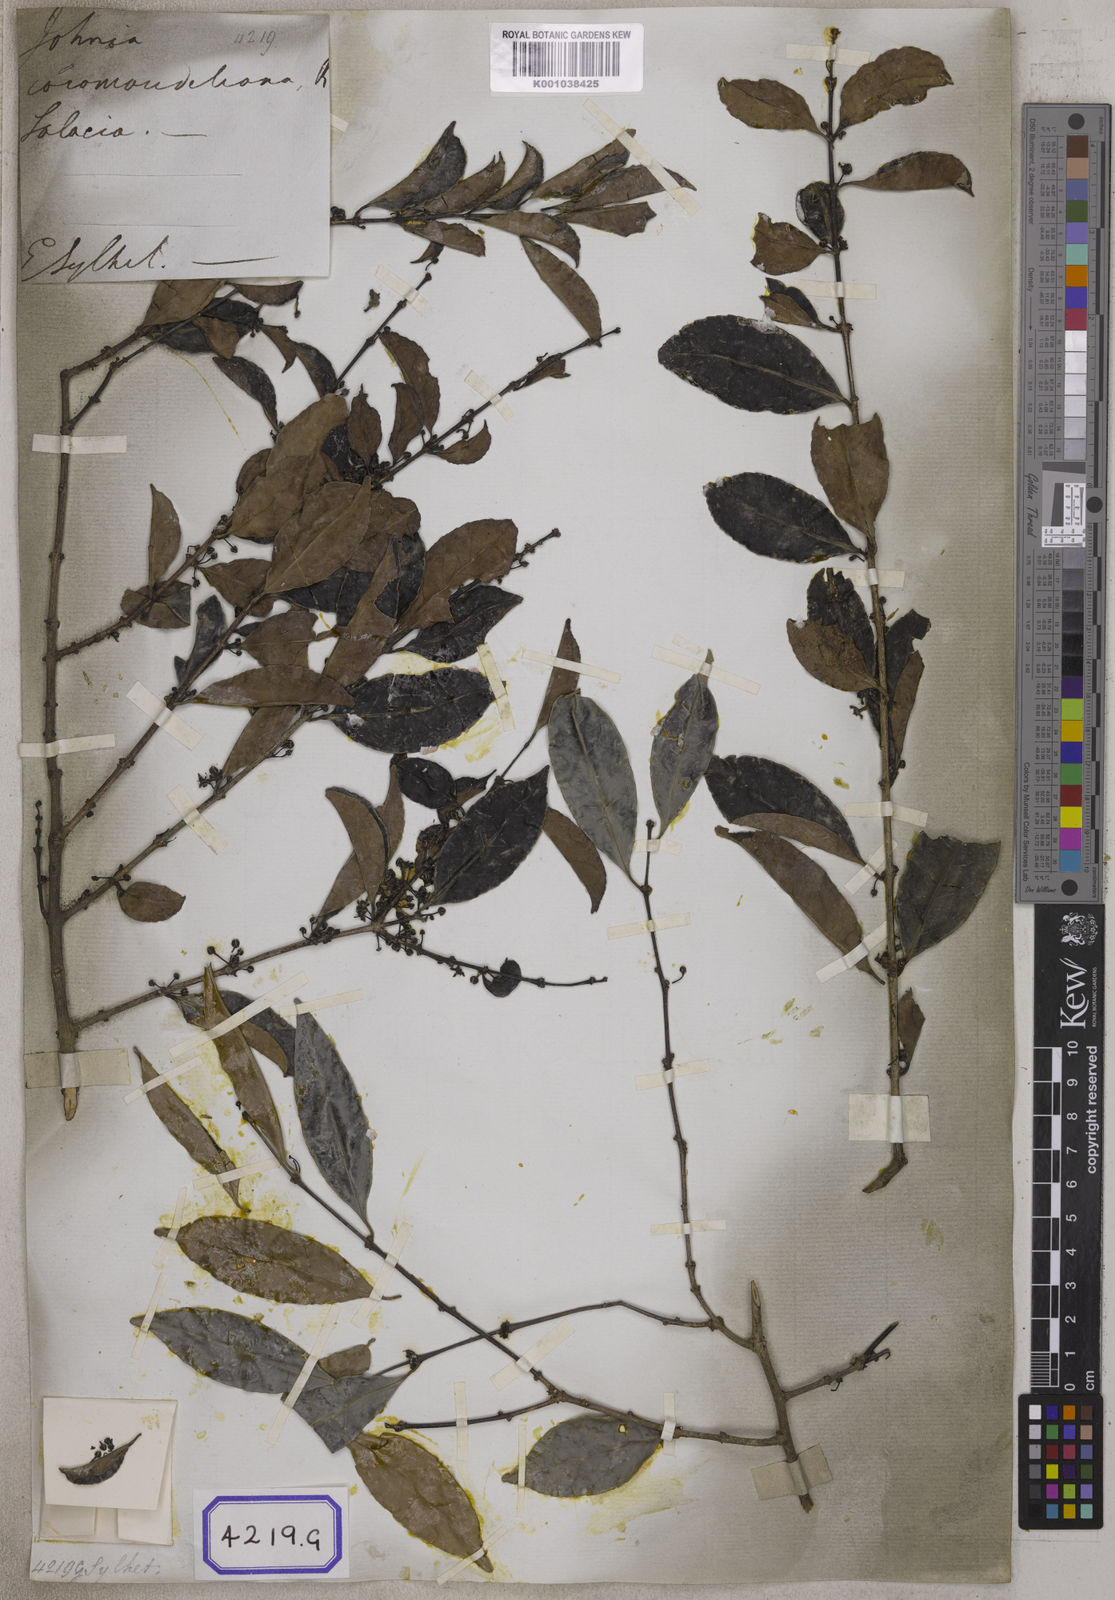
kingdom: Plantae
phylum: Tracheophyta
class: Magnoliopsida
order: Celastrales
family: Celastraceae
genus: Salacia
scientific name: Salacia chinensis
